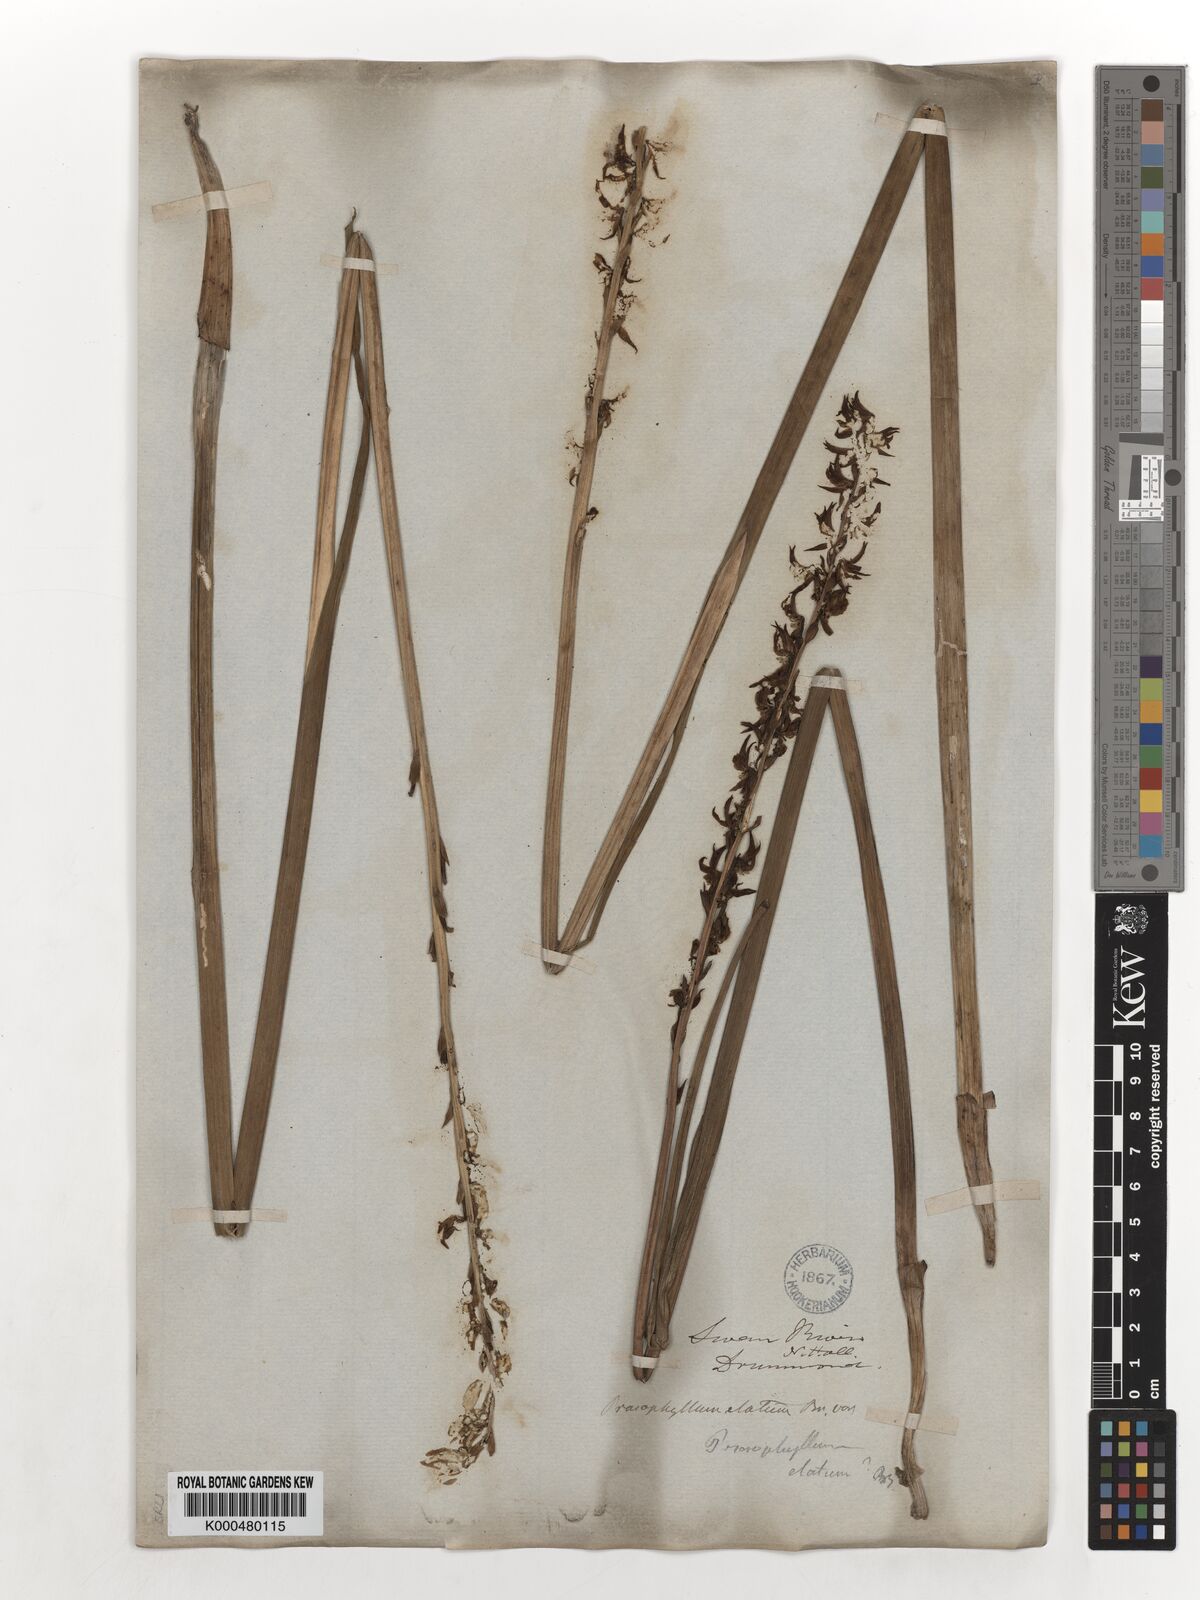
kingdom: Plantae
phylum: Tracheophyta
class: Liliopsida
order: Asparagales
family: Orchidaceae
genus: Prasophyllum
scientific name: Prasophyllum giganteum
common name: Bronze leek orchid
